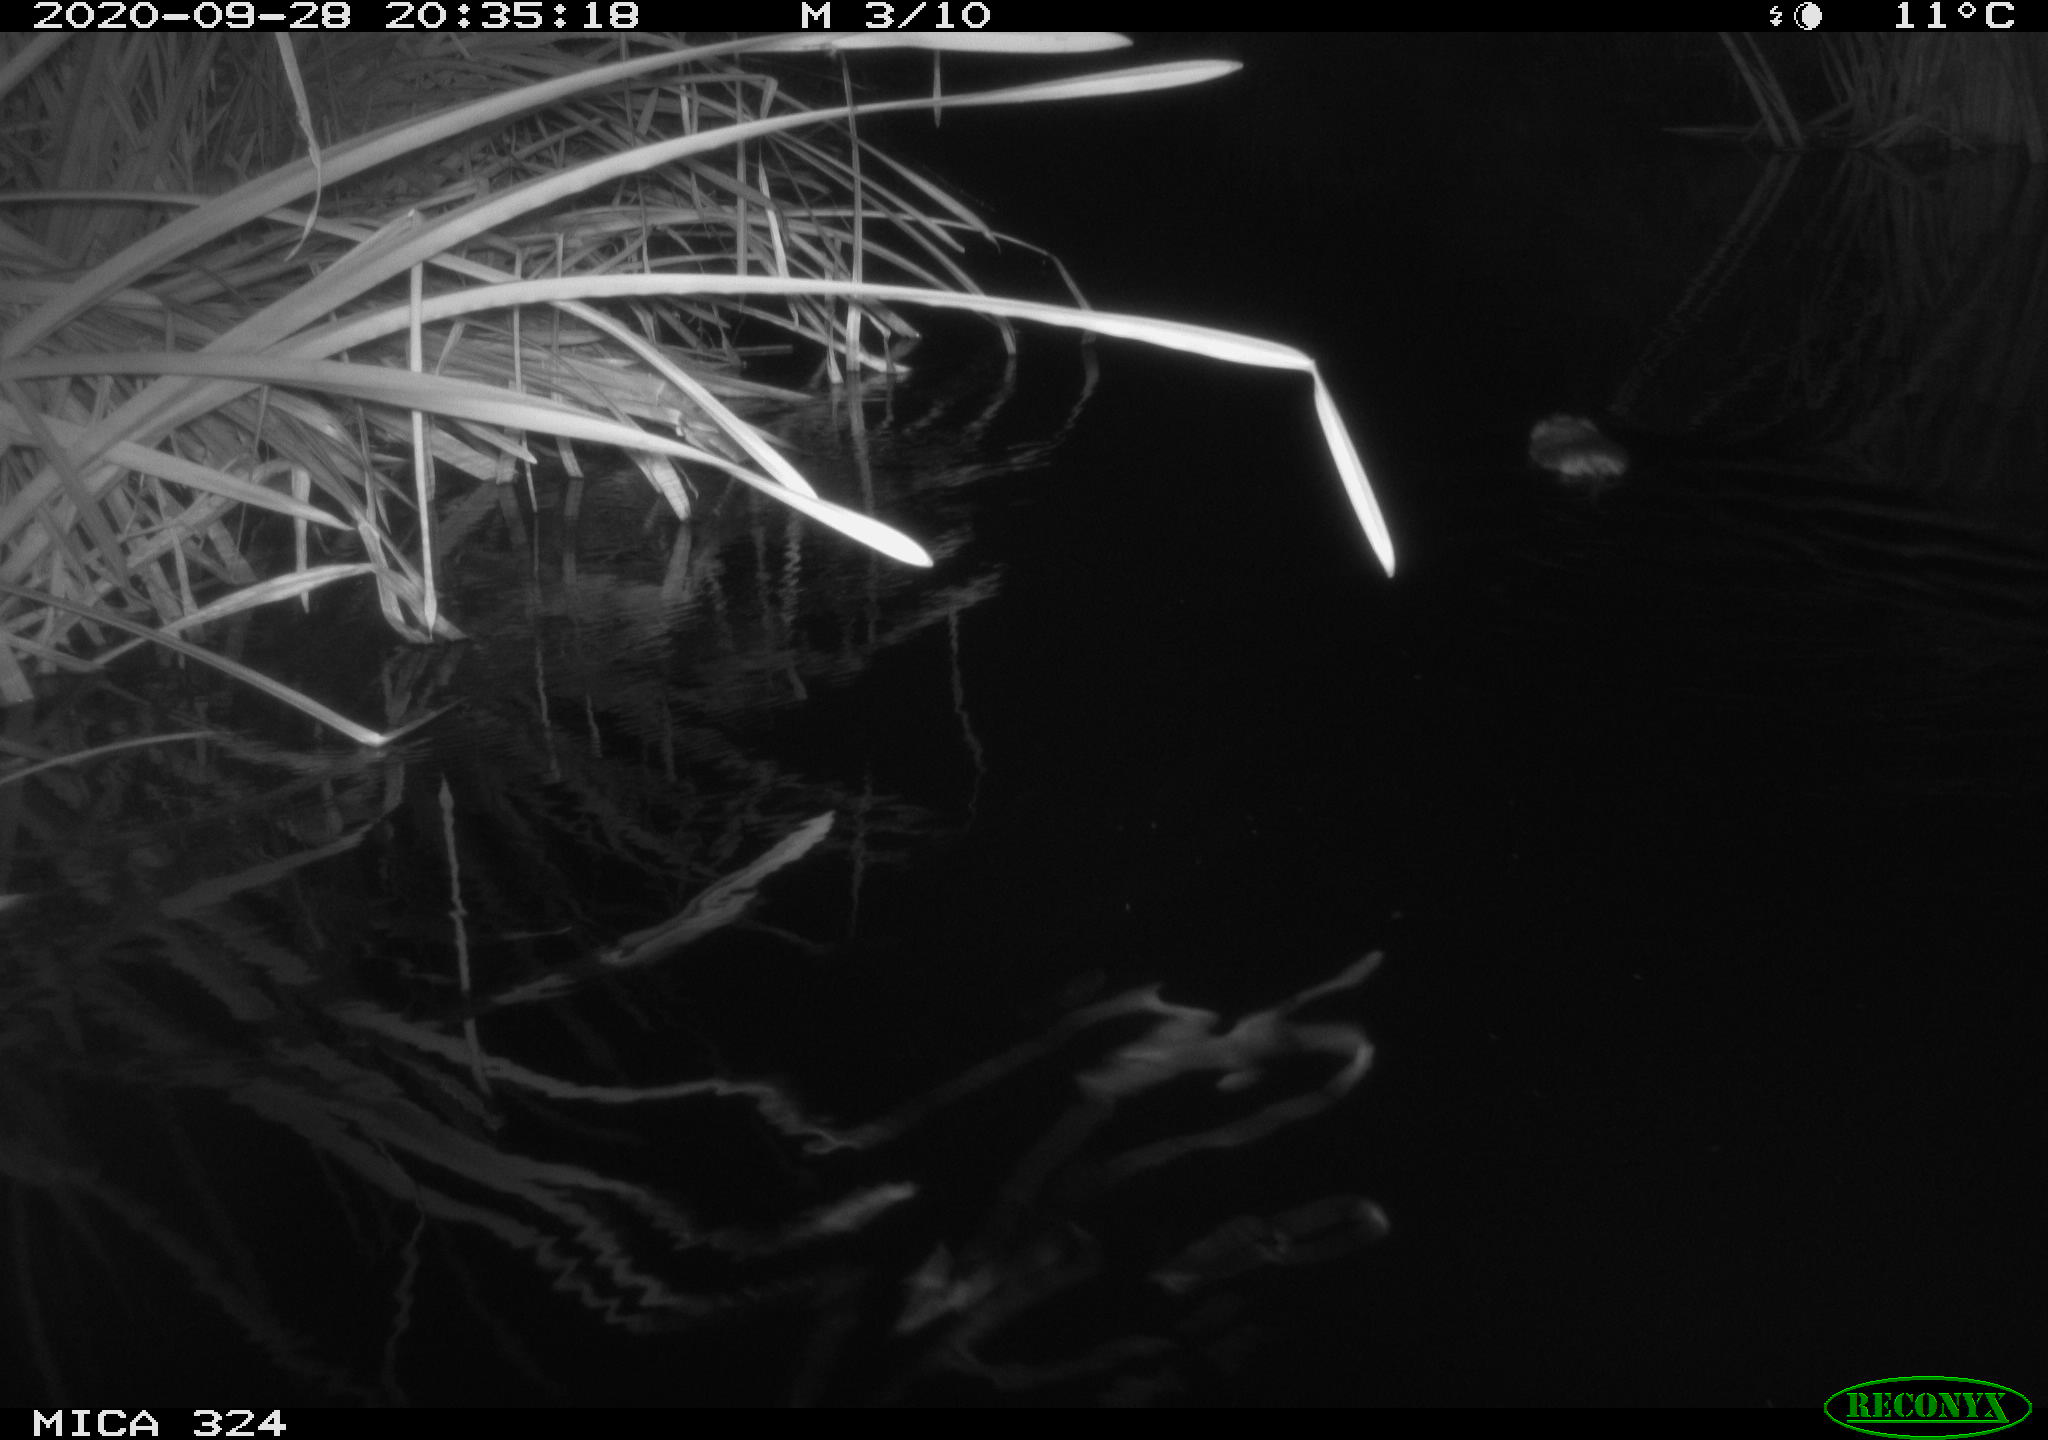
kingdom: Animalia
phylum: Chordata
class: Mammalia
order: Rodentia
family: Cricetidae
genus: Ondatra
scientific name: Ondatra zibethicus
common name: Muskrat
